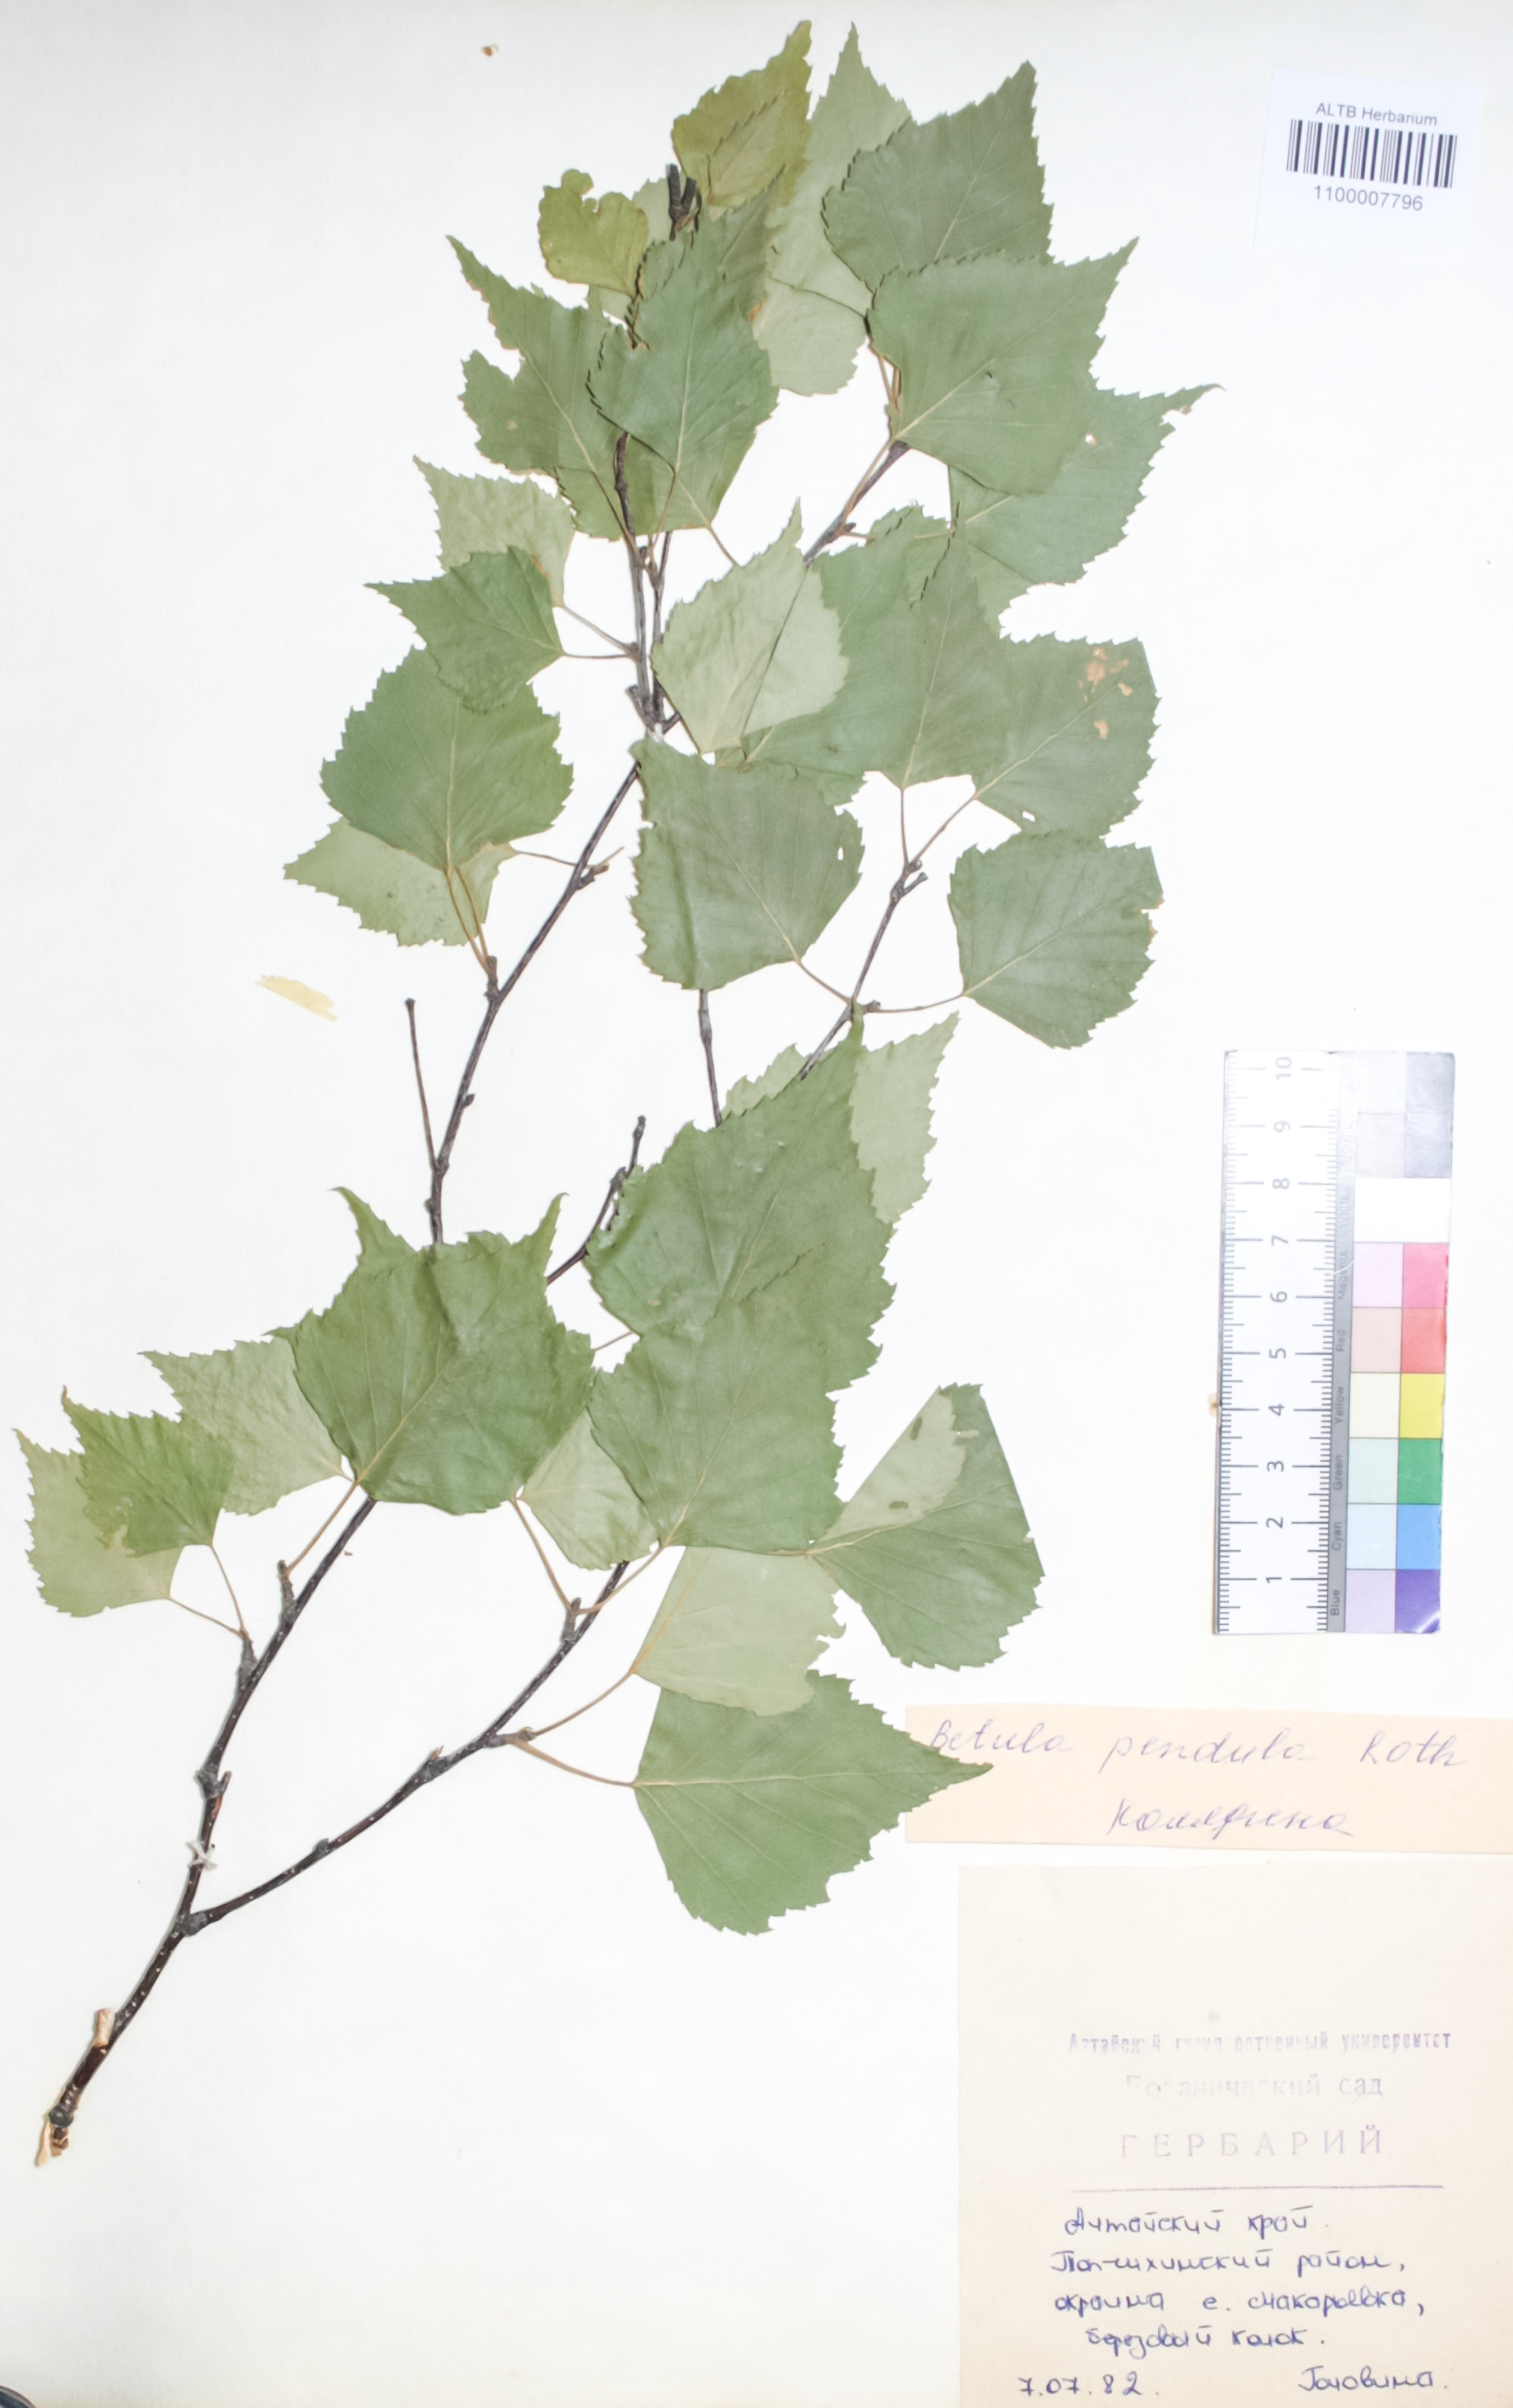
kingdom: Plantae
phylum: Tracheophyta
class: Magnoliopsida
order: Fagales
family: Betulaceae
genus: Betula
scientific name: Betula pendula
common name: Silver birch
